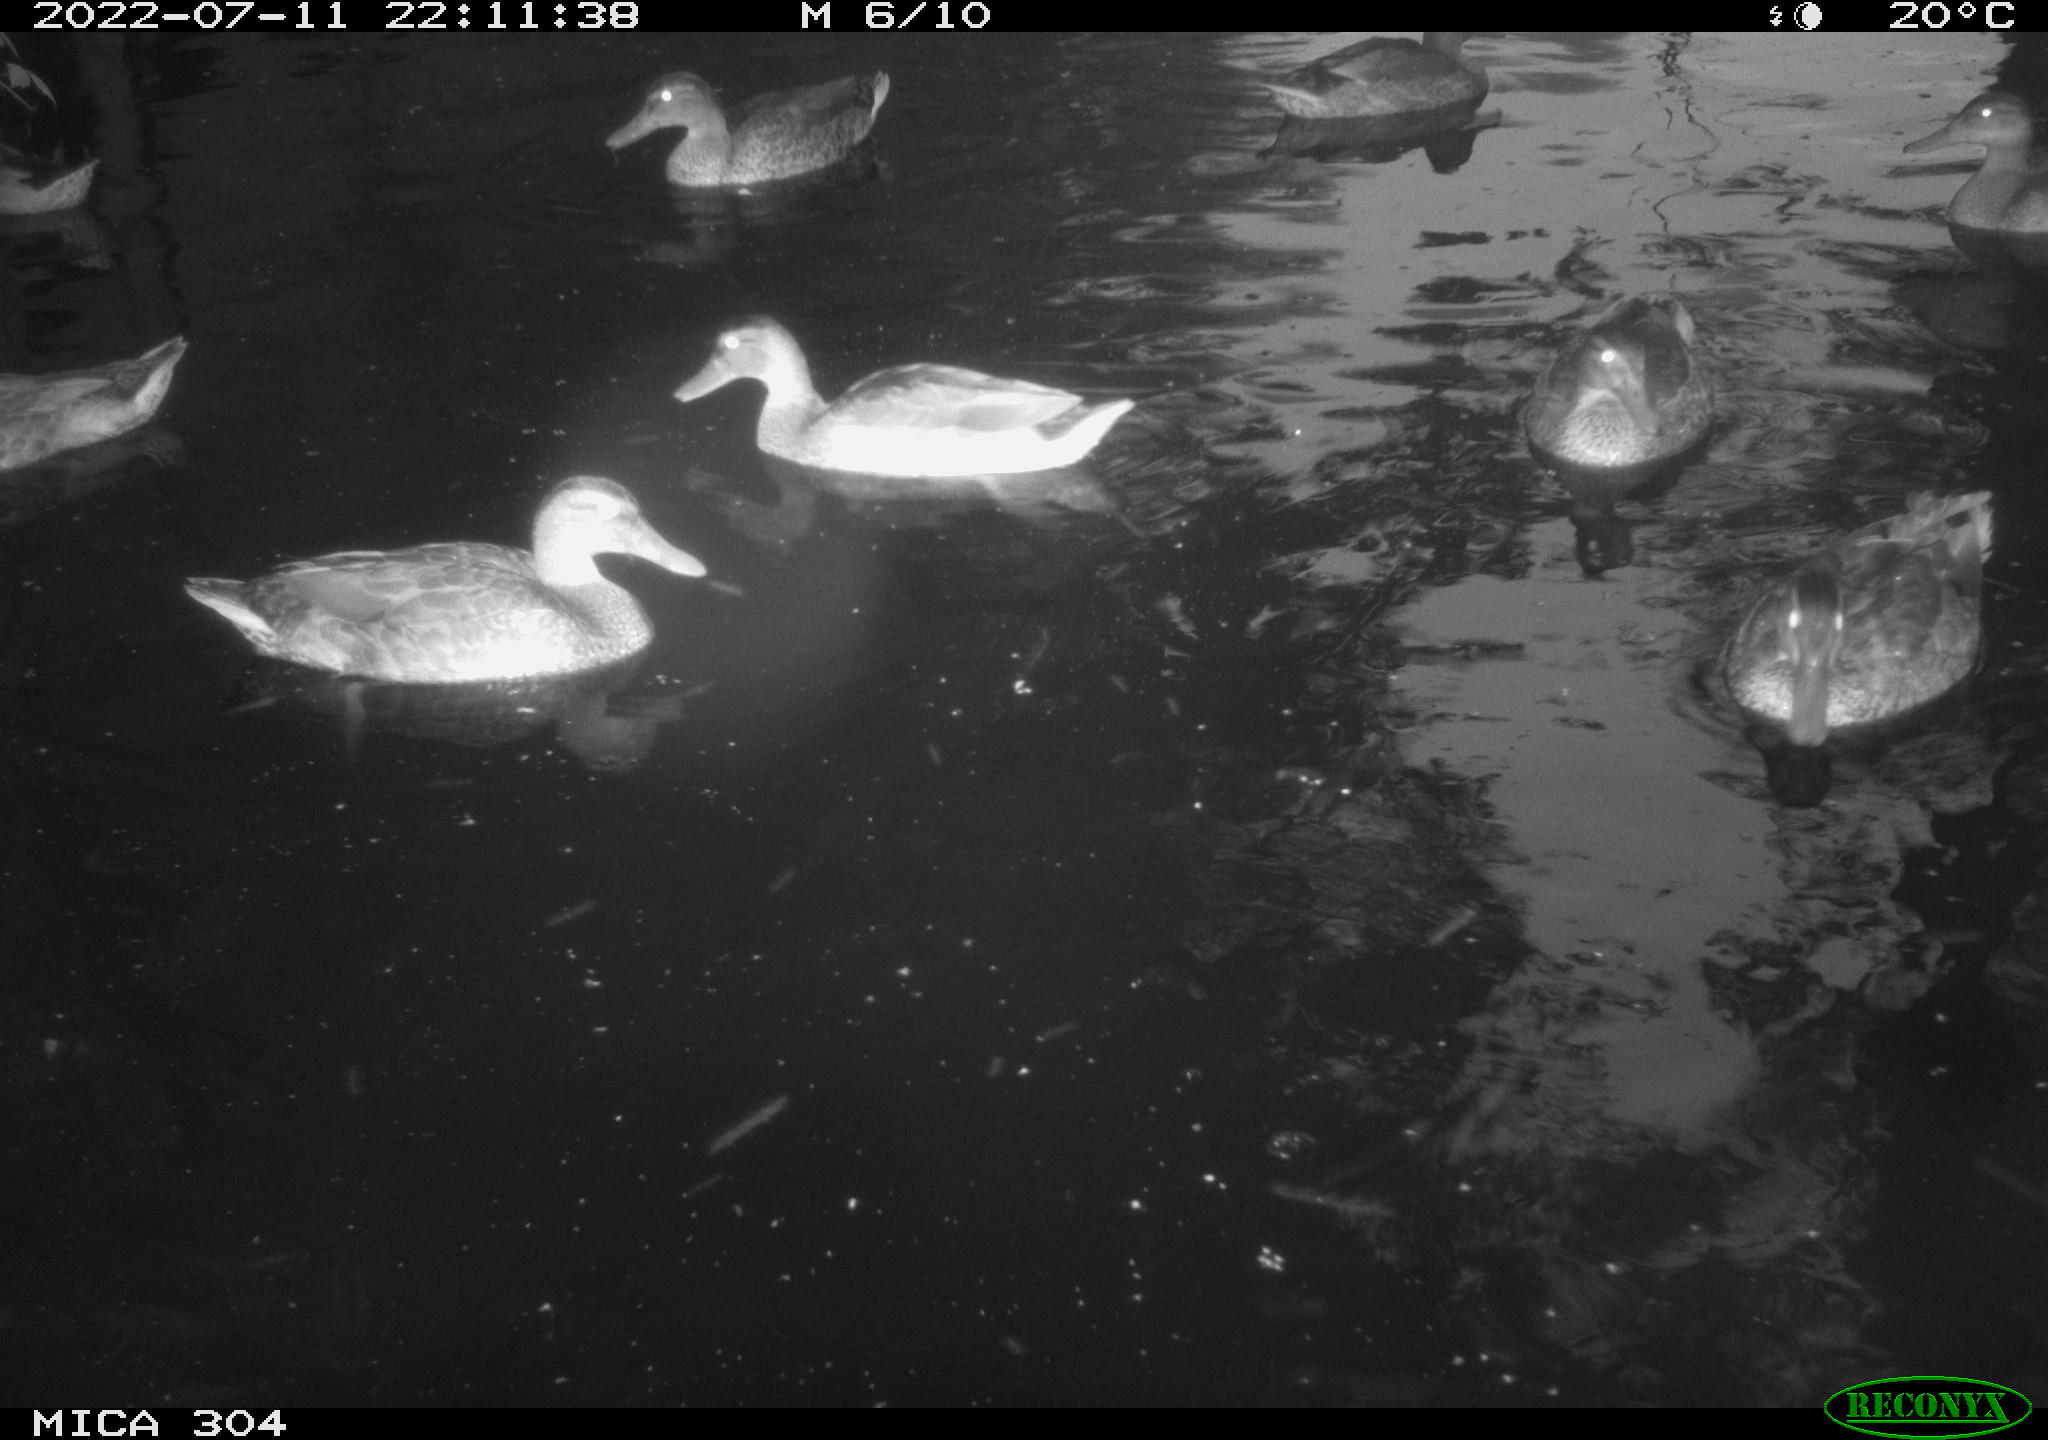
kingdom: Animalia
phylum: Chordata
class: Aves
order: Anseriformes
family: Anatidae
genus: Mareca
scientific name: Mareca strepera
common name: Gadwall
